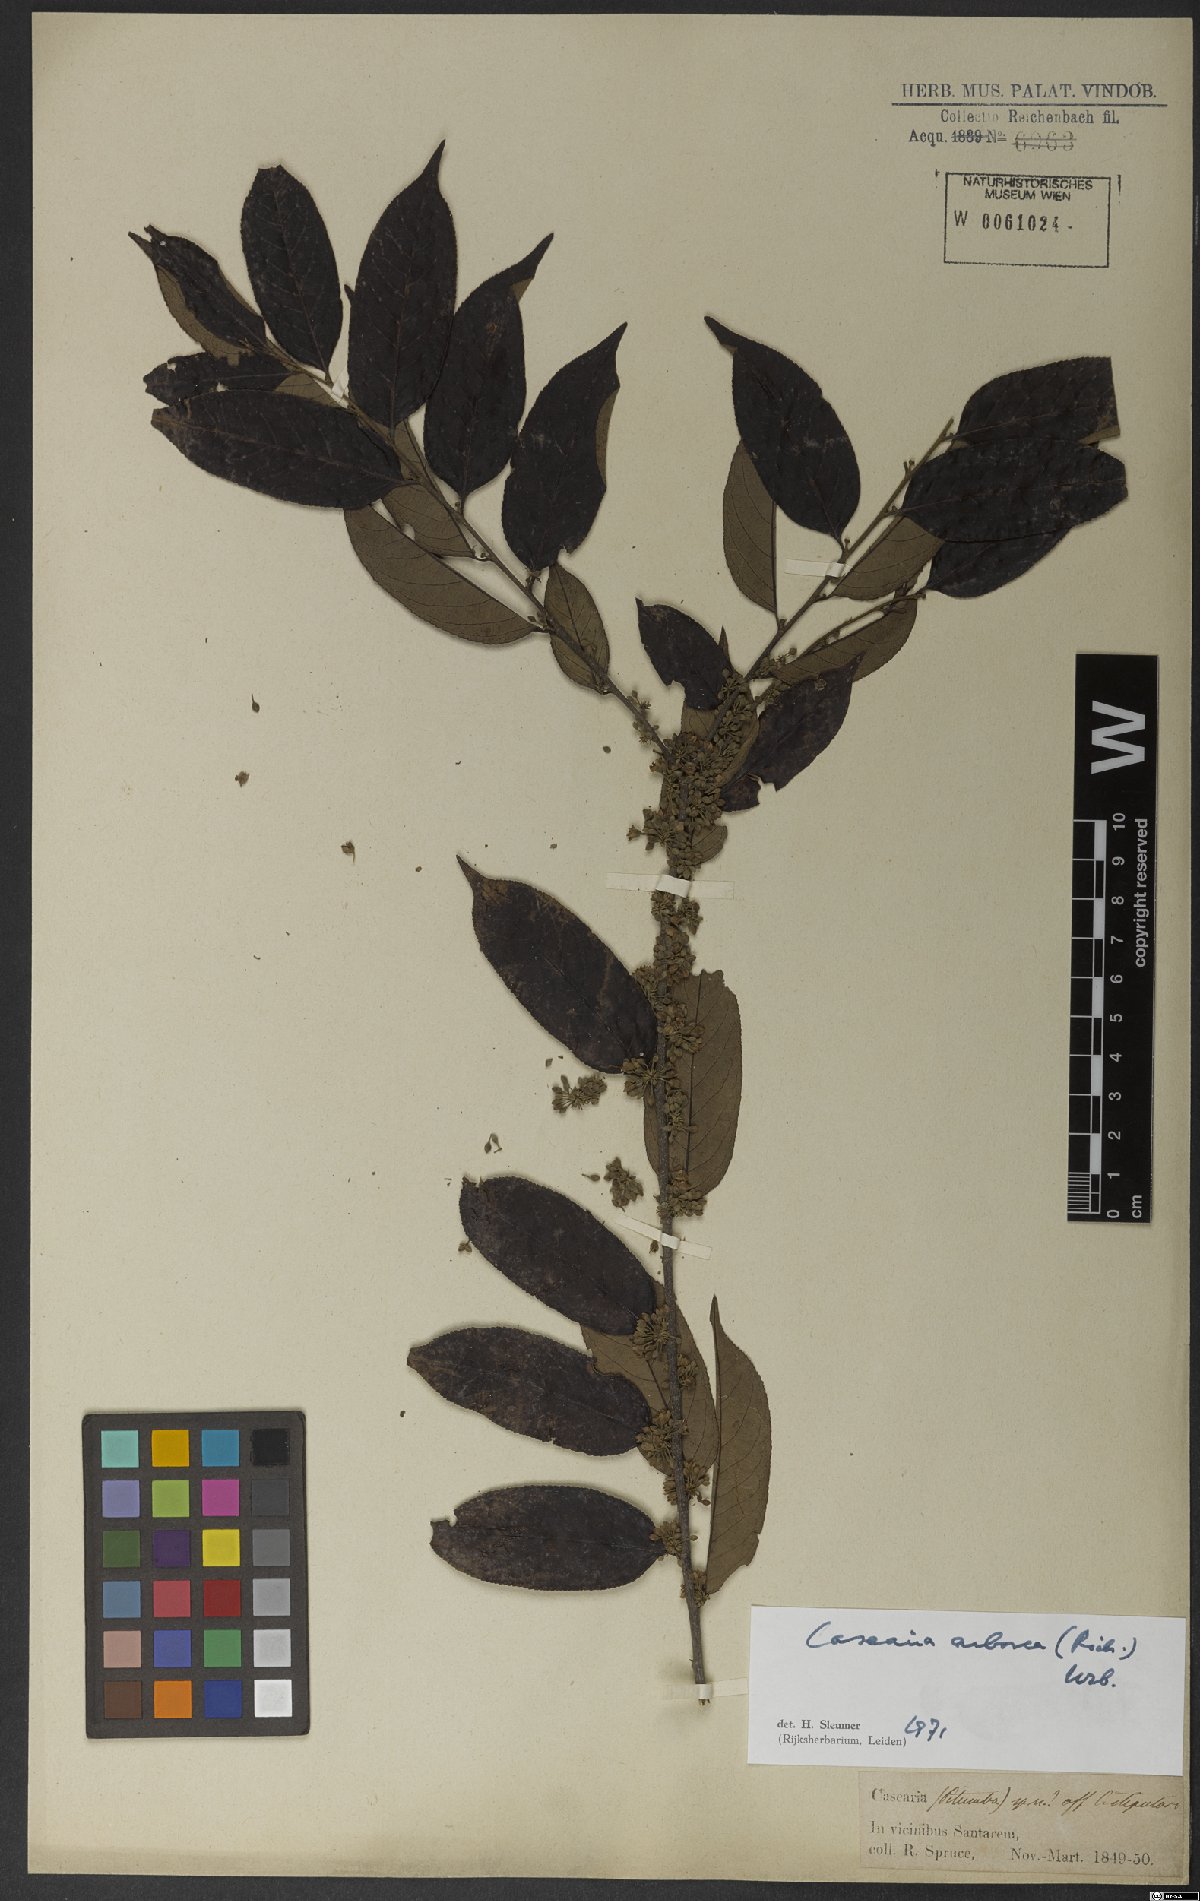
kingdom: Plantae
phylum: Tracheophyta
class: Magnoliopsida
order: Malpighiales
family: Salicaceae
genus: Casearia
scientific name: Casearia arborea
